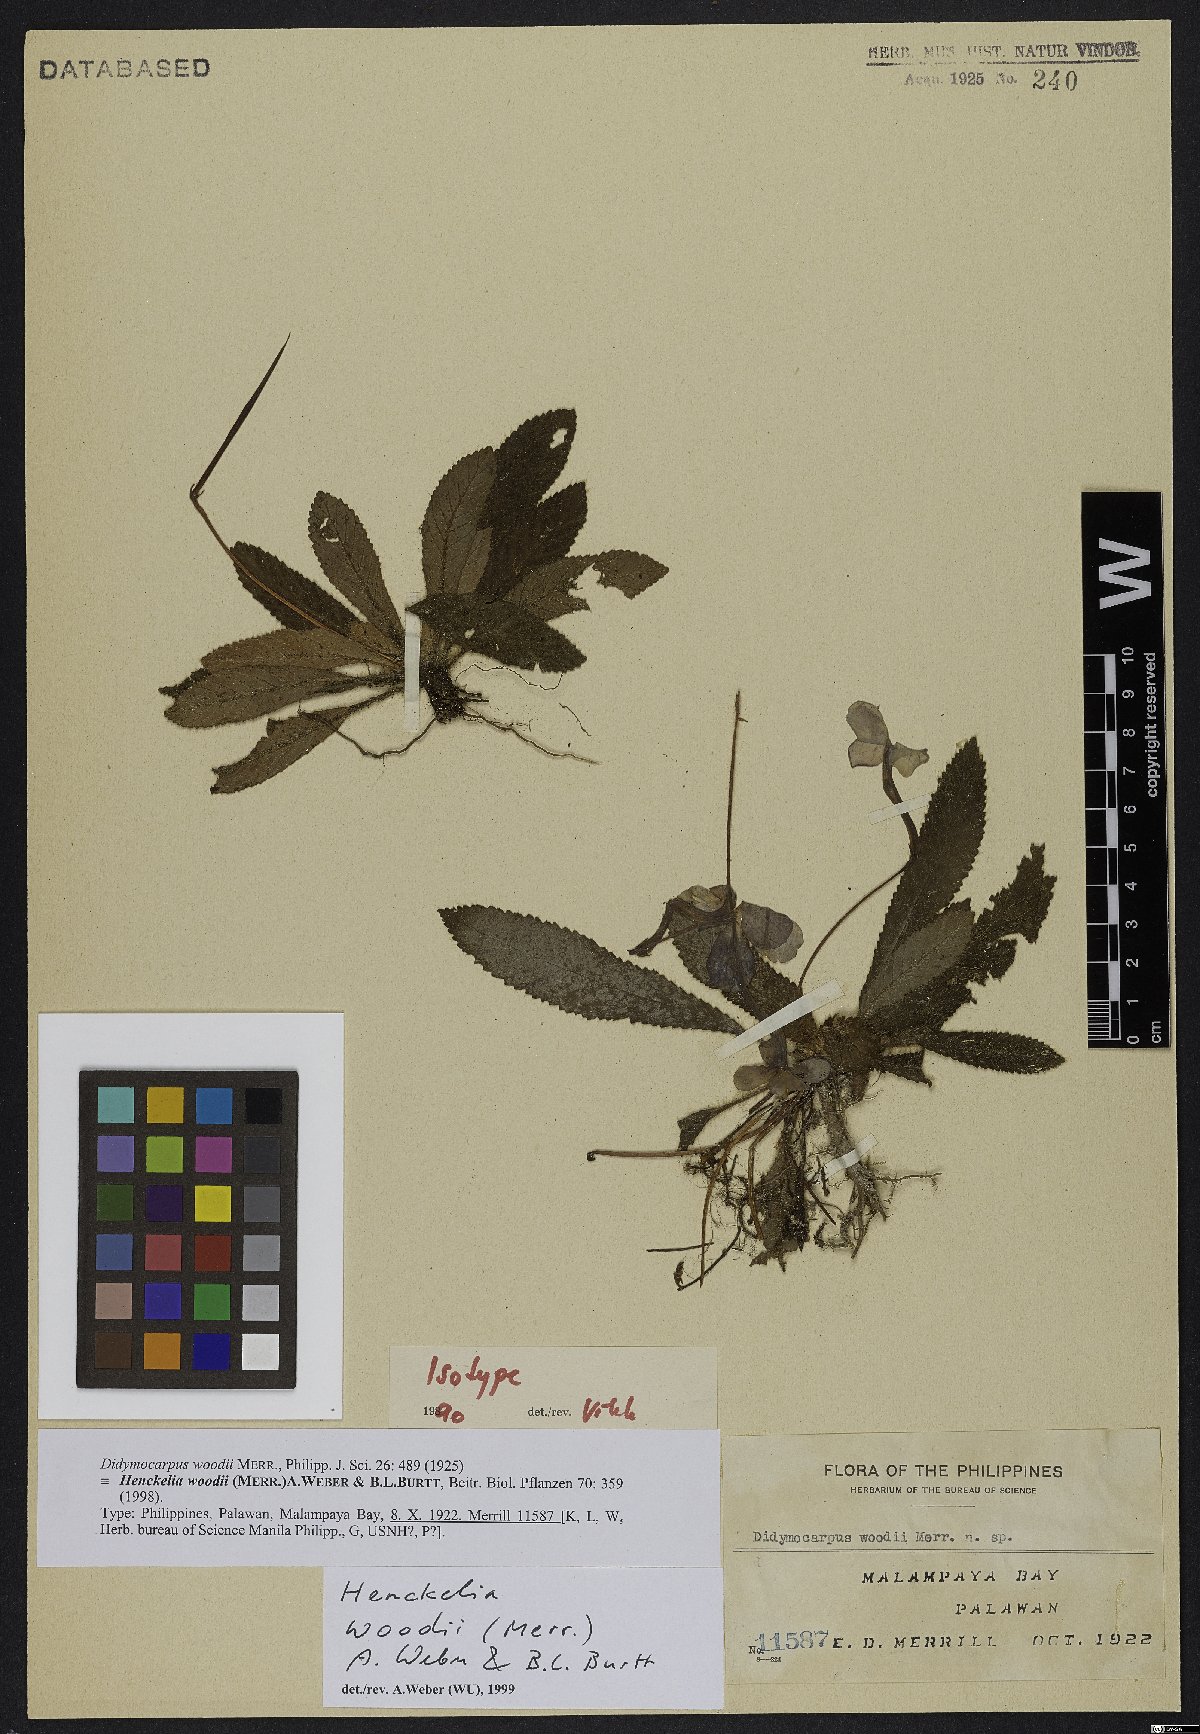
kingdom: Plantae
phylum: Tracheophyta
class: Magnoliopsida
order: Lamiales
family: Gesneriaceae
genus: Codonoboea
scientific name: Codonoboea woodii
